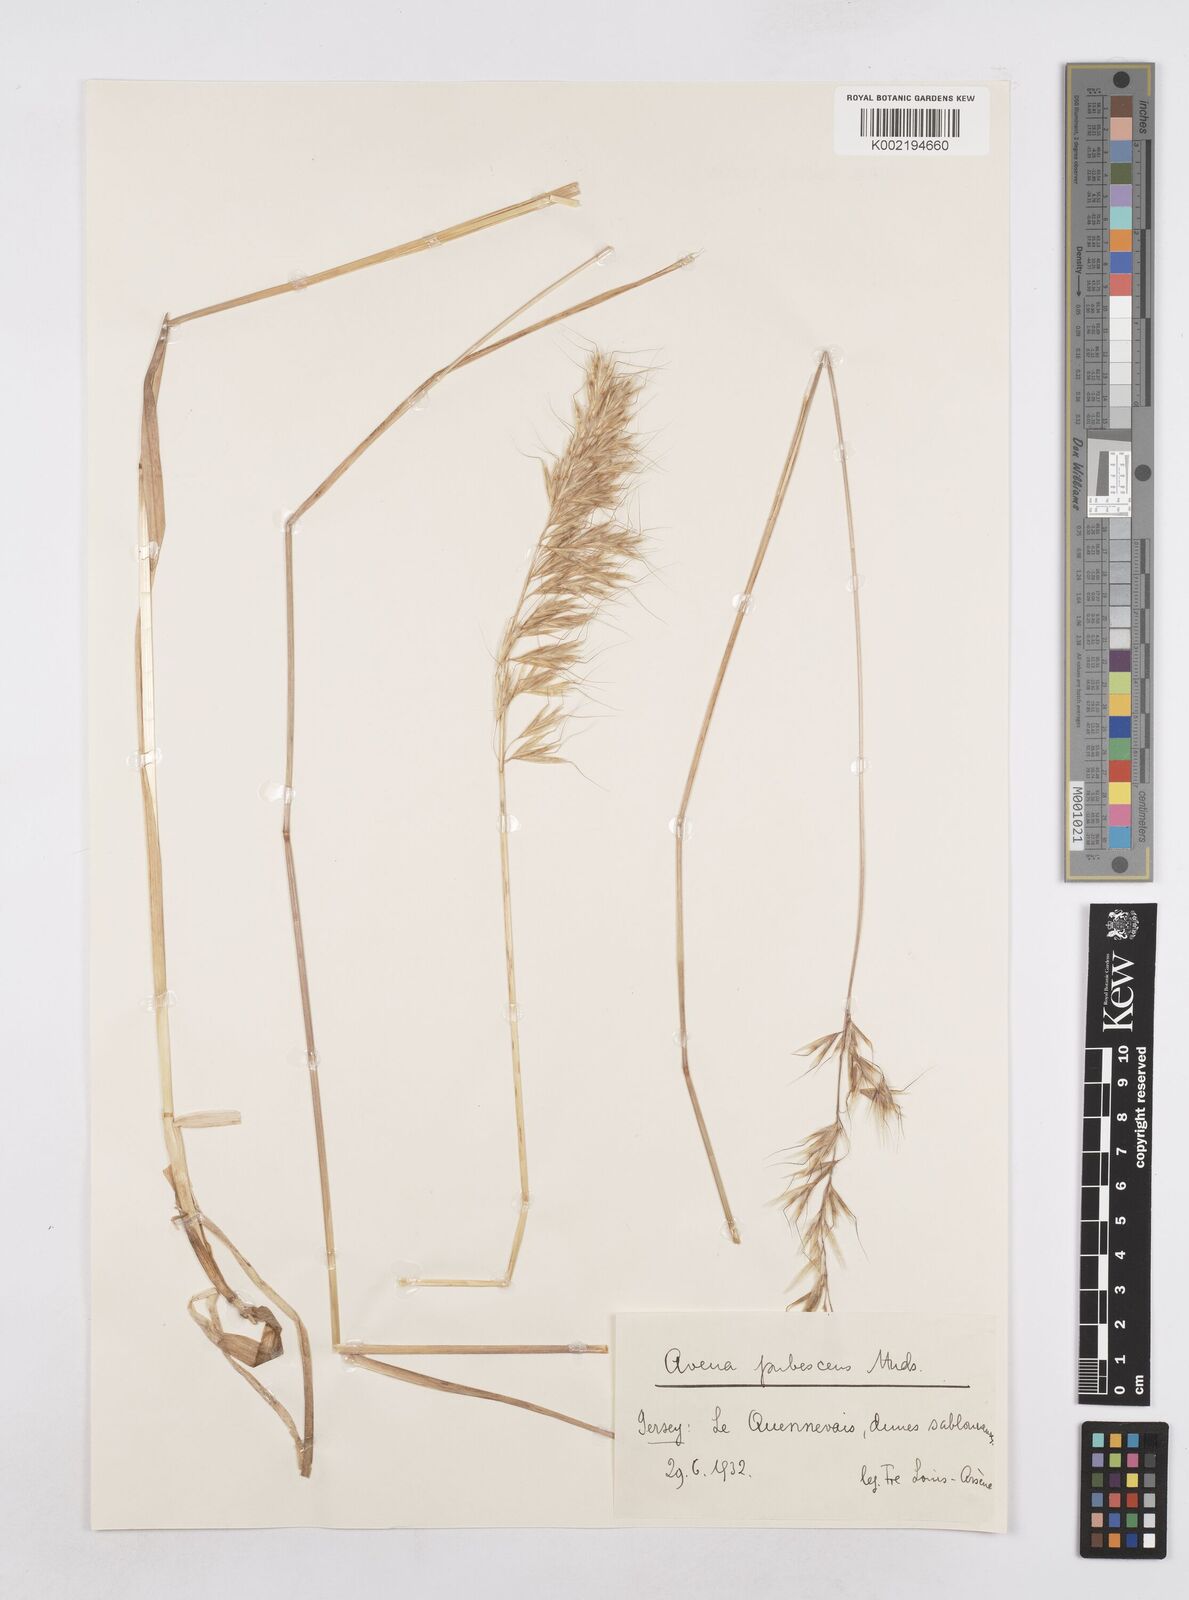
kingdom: Plantae
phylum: Tracheophyta
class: Liliopsida
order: Poales
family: Poaceae
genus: Avenula
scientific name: Avenula pubescens
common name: Downy alpine oatgrass
